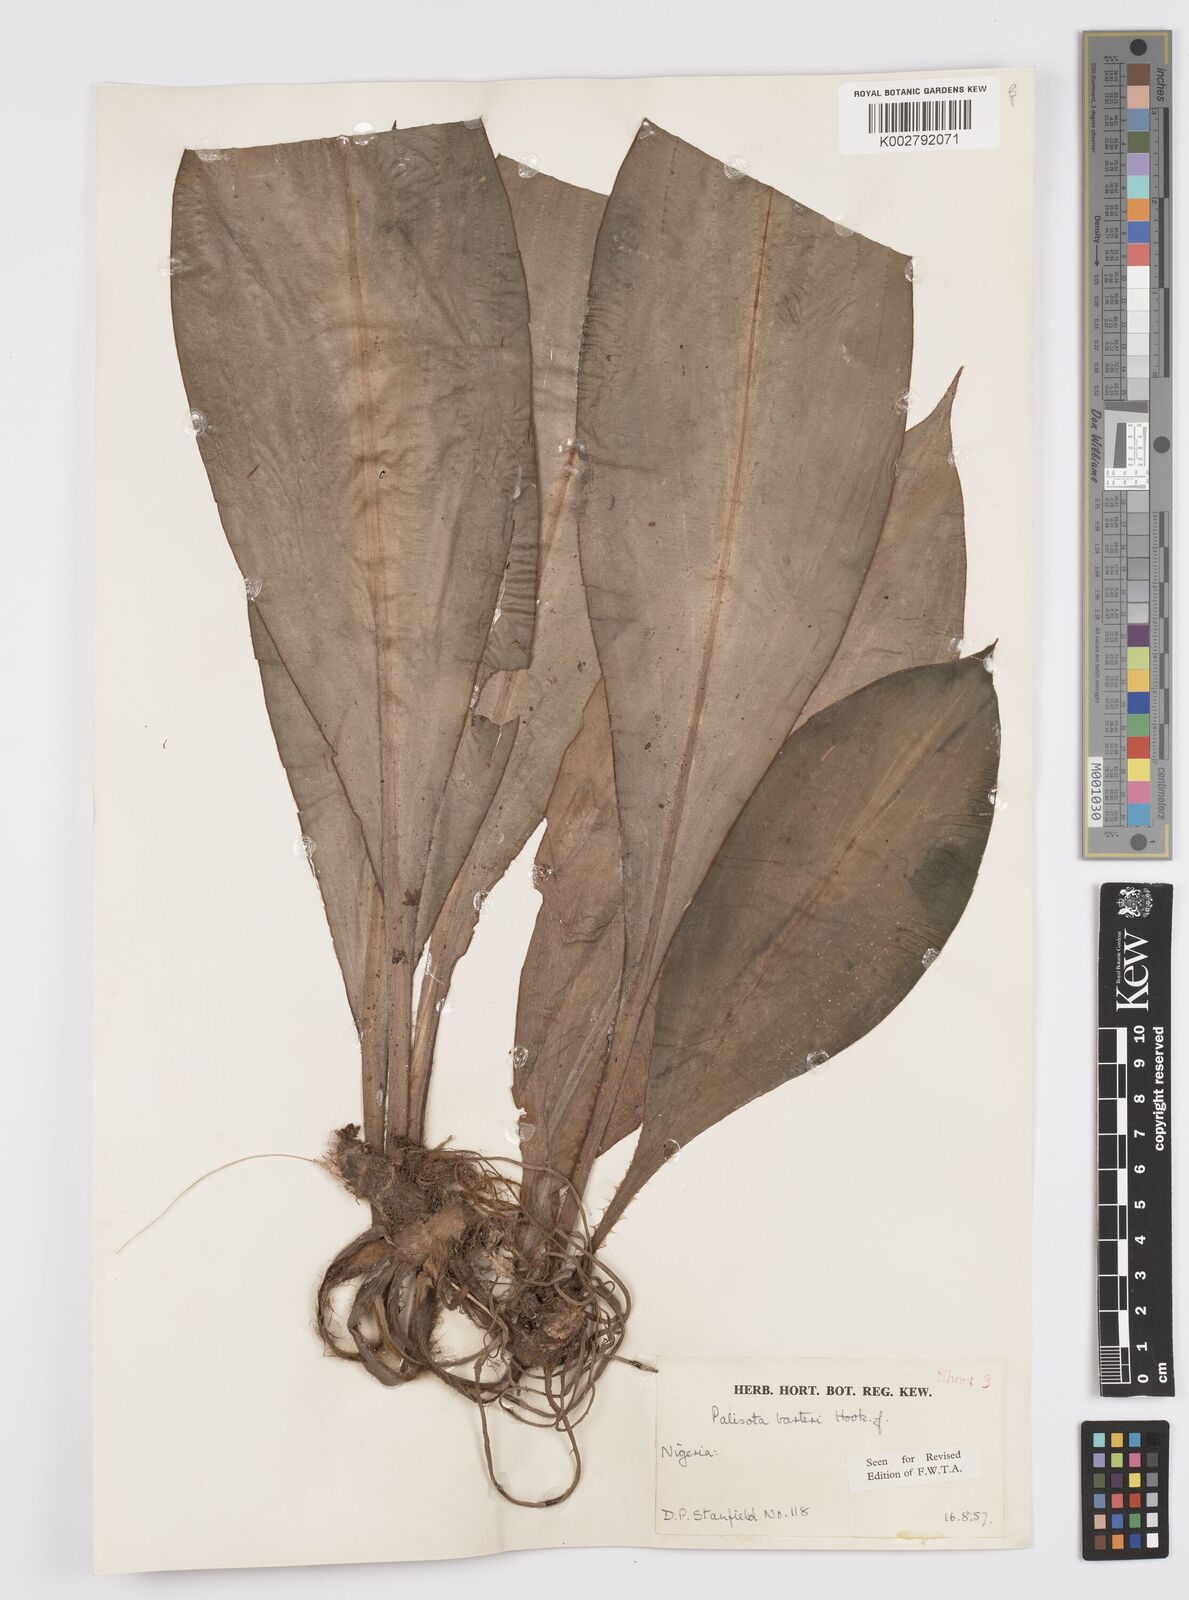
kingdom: Plantae
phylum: Tracheophyta
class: Liliopsida
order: Commelinales
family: Commelinaceae
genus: Palisota
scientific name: Palisota barteri
